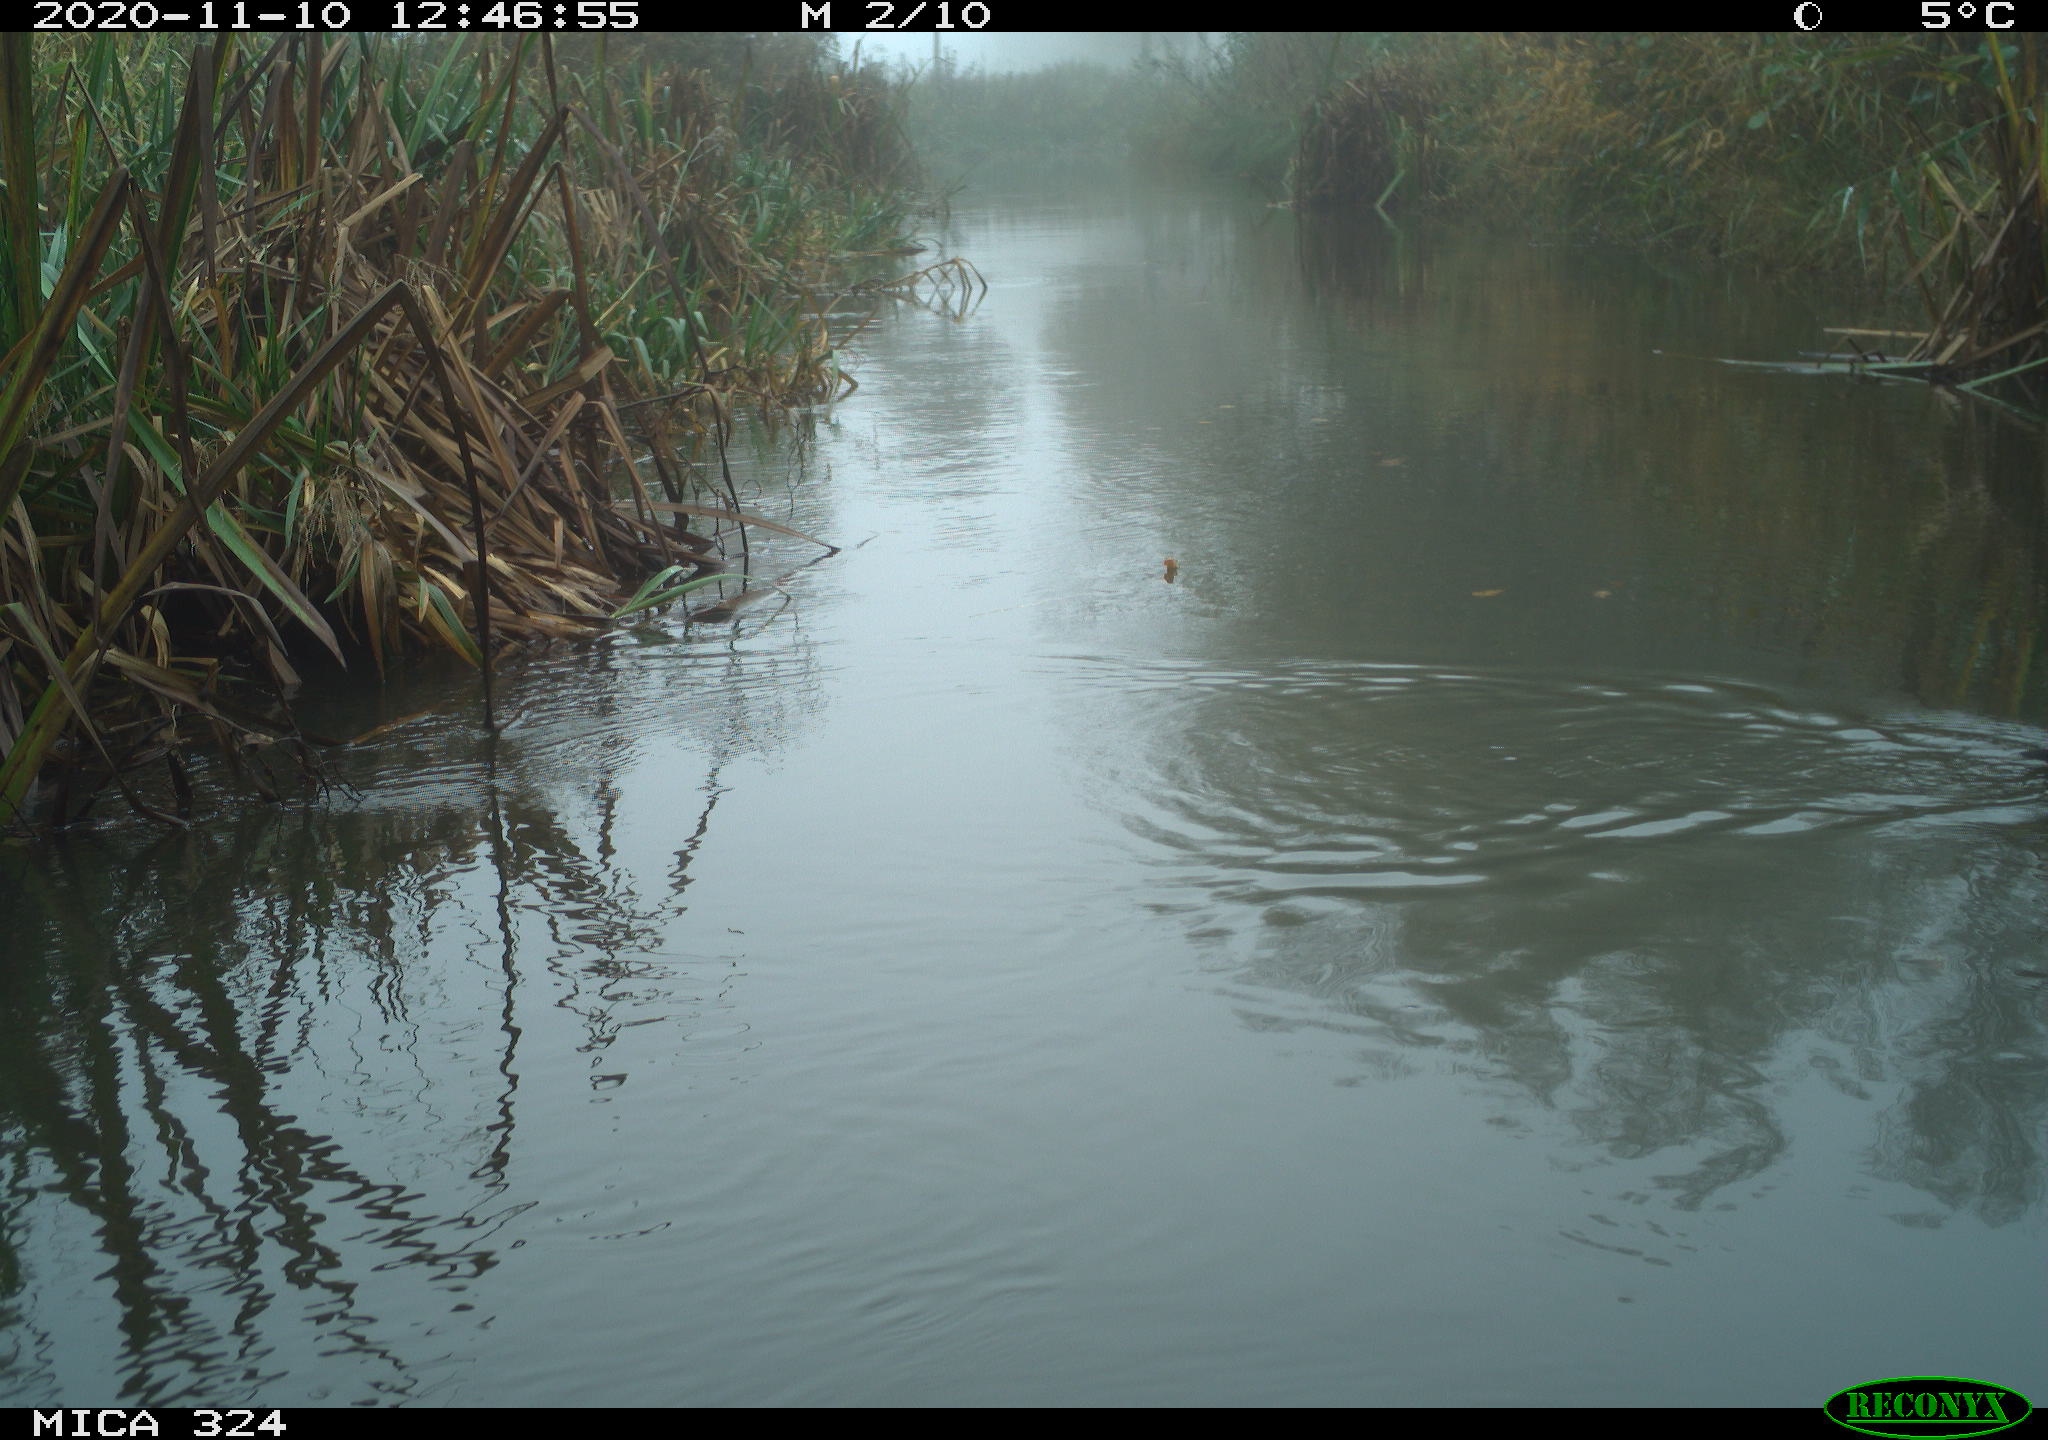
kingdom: Animalia
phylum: Chordata
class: Aves
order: Gruiformes
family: Rallidae
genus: Gallinula
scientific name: Gallinula chloropus
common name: Common moorhen
